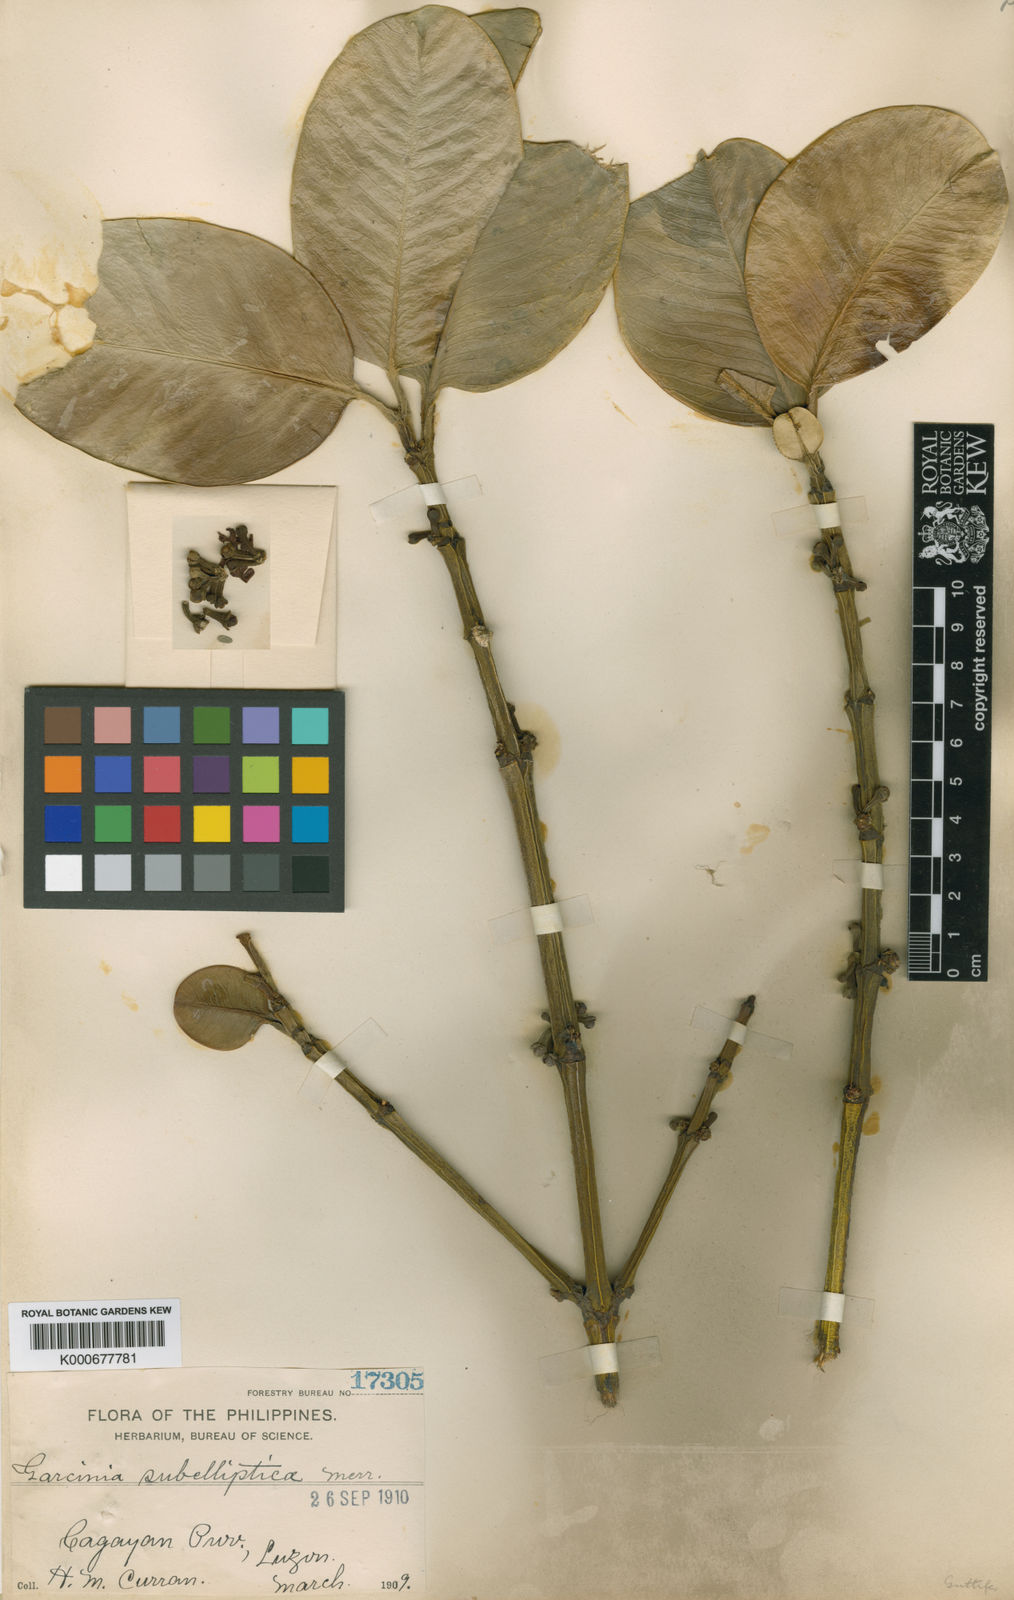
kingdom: Plantae
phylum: Tracheophyta
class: Magnoliopsida
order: Malpighiales
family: Clusiaceae
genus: Garcinia
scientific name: Garcinia subelliptica
